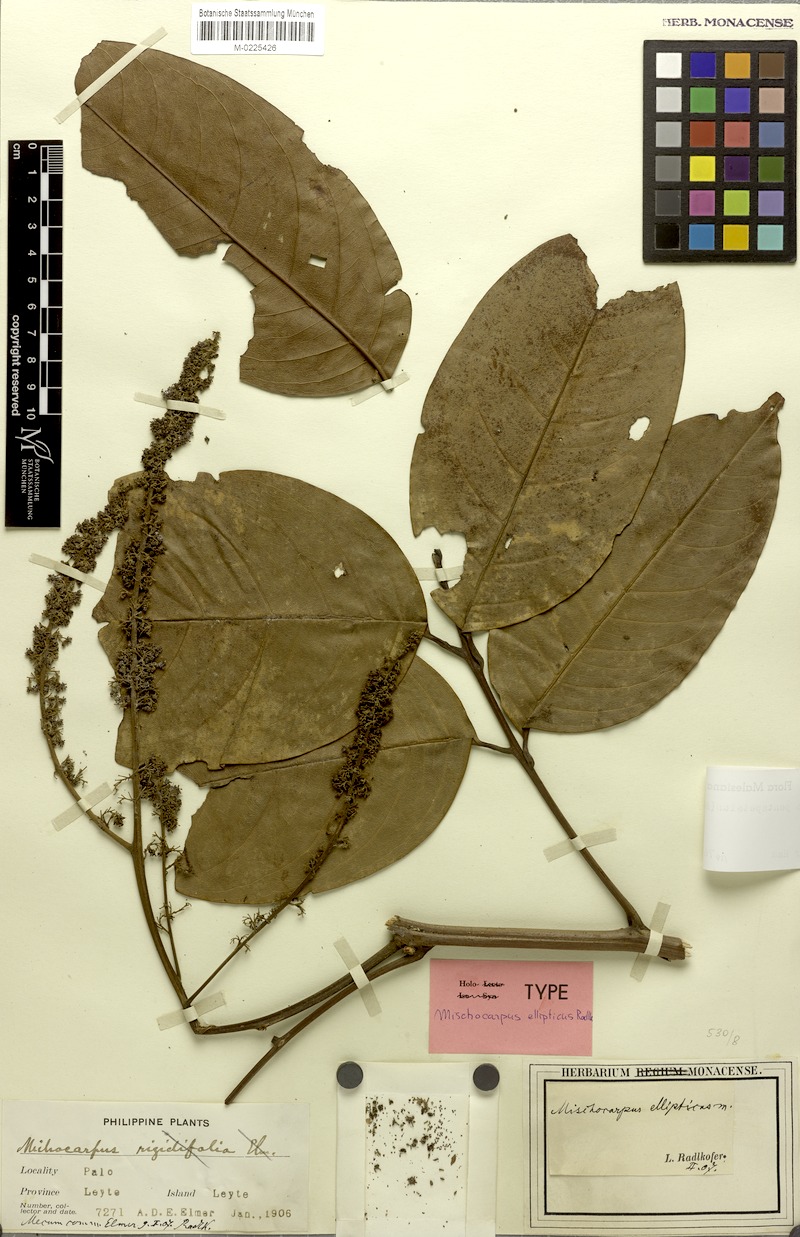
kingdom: Plantae
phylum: Tracheophyta
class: Magnoliopsida
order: Sapindales
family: Sapindaceae
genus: Mischocarpus
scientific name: Mischocarpus pentapetalus
